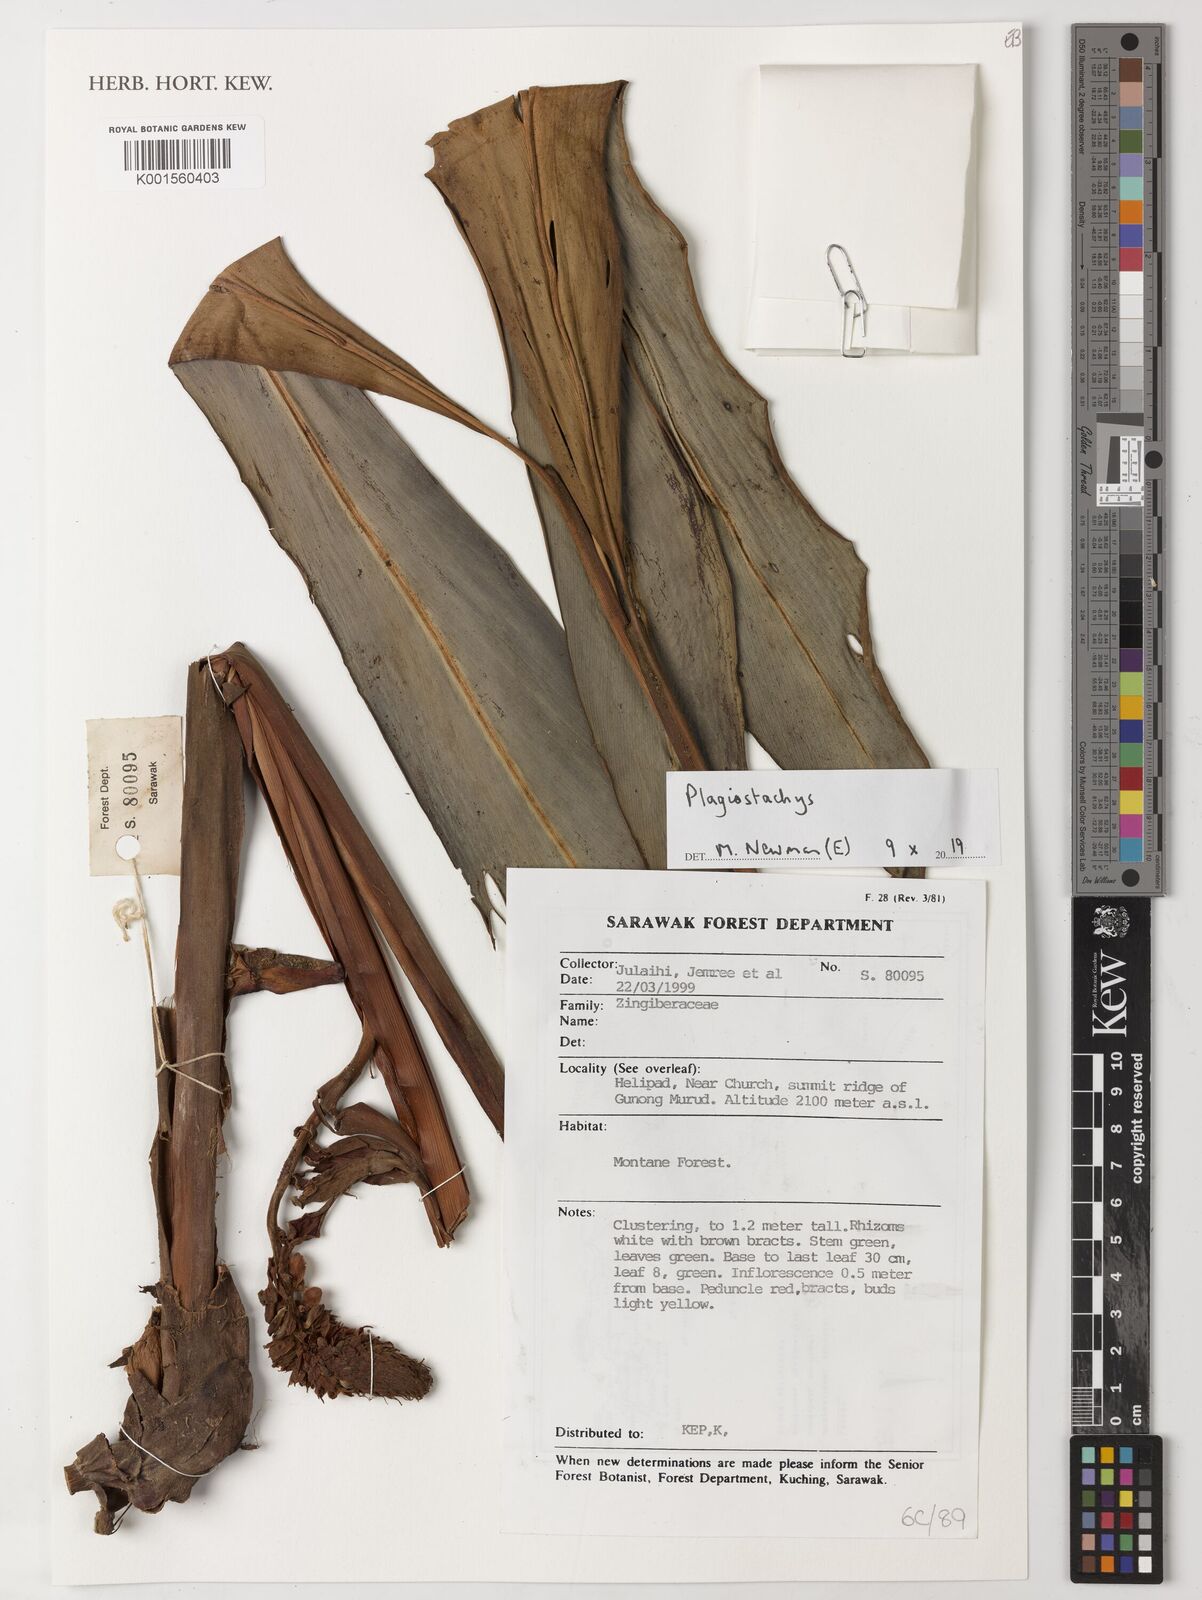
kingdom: Plantae
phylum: Tracheophyta
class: Liliopsida
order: Zingiberales
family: Zingiberaceae
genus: Plagiostachys
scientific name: Plagiostachys
